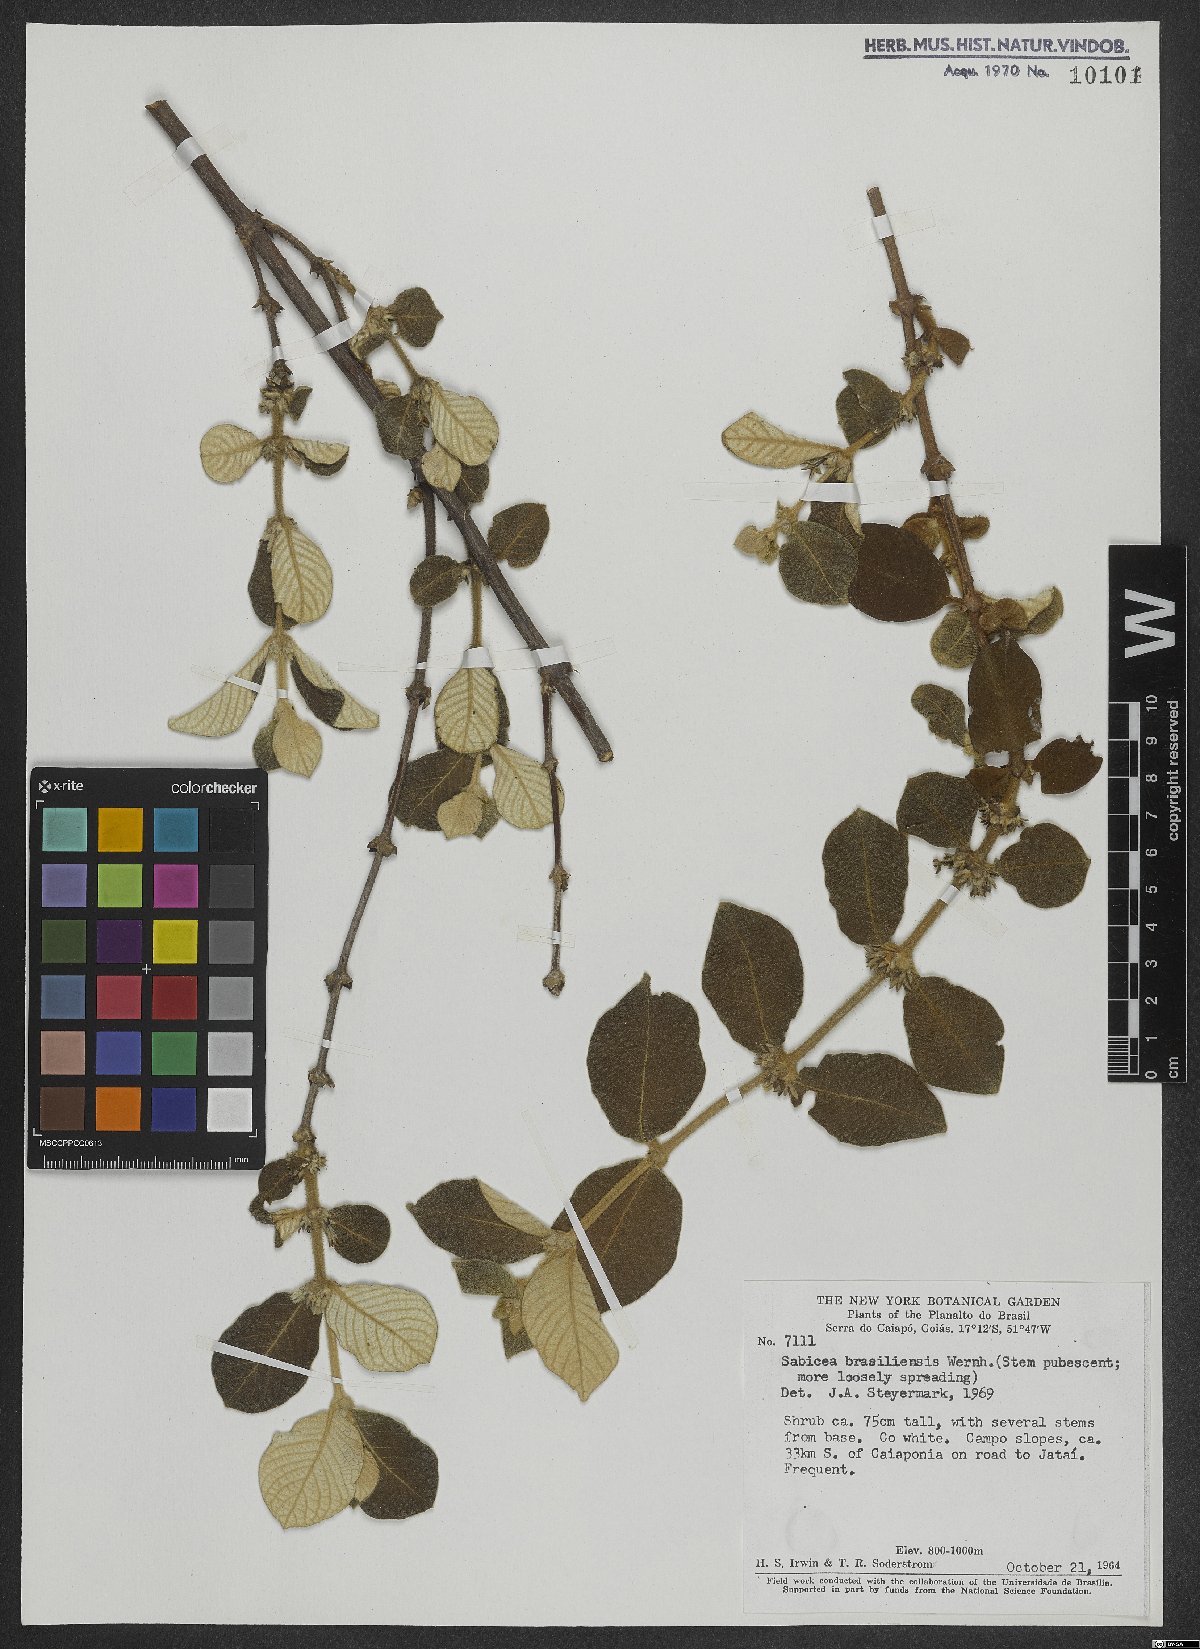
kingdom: Plantae
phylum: Tracheophyta
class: Magnoliopsida
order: Gentianales
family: Rubiaceae
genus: Sabicea
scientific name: Sabicea brasiliensis
